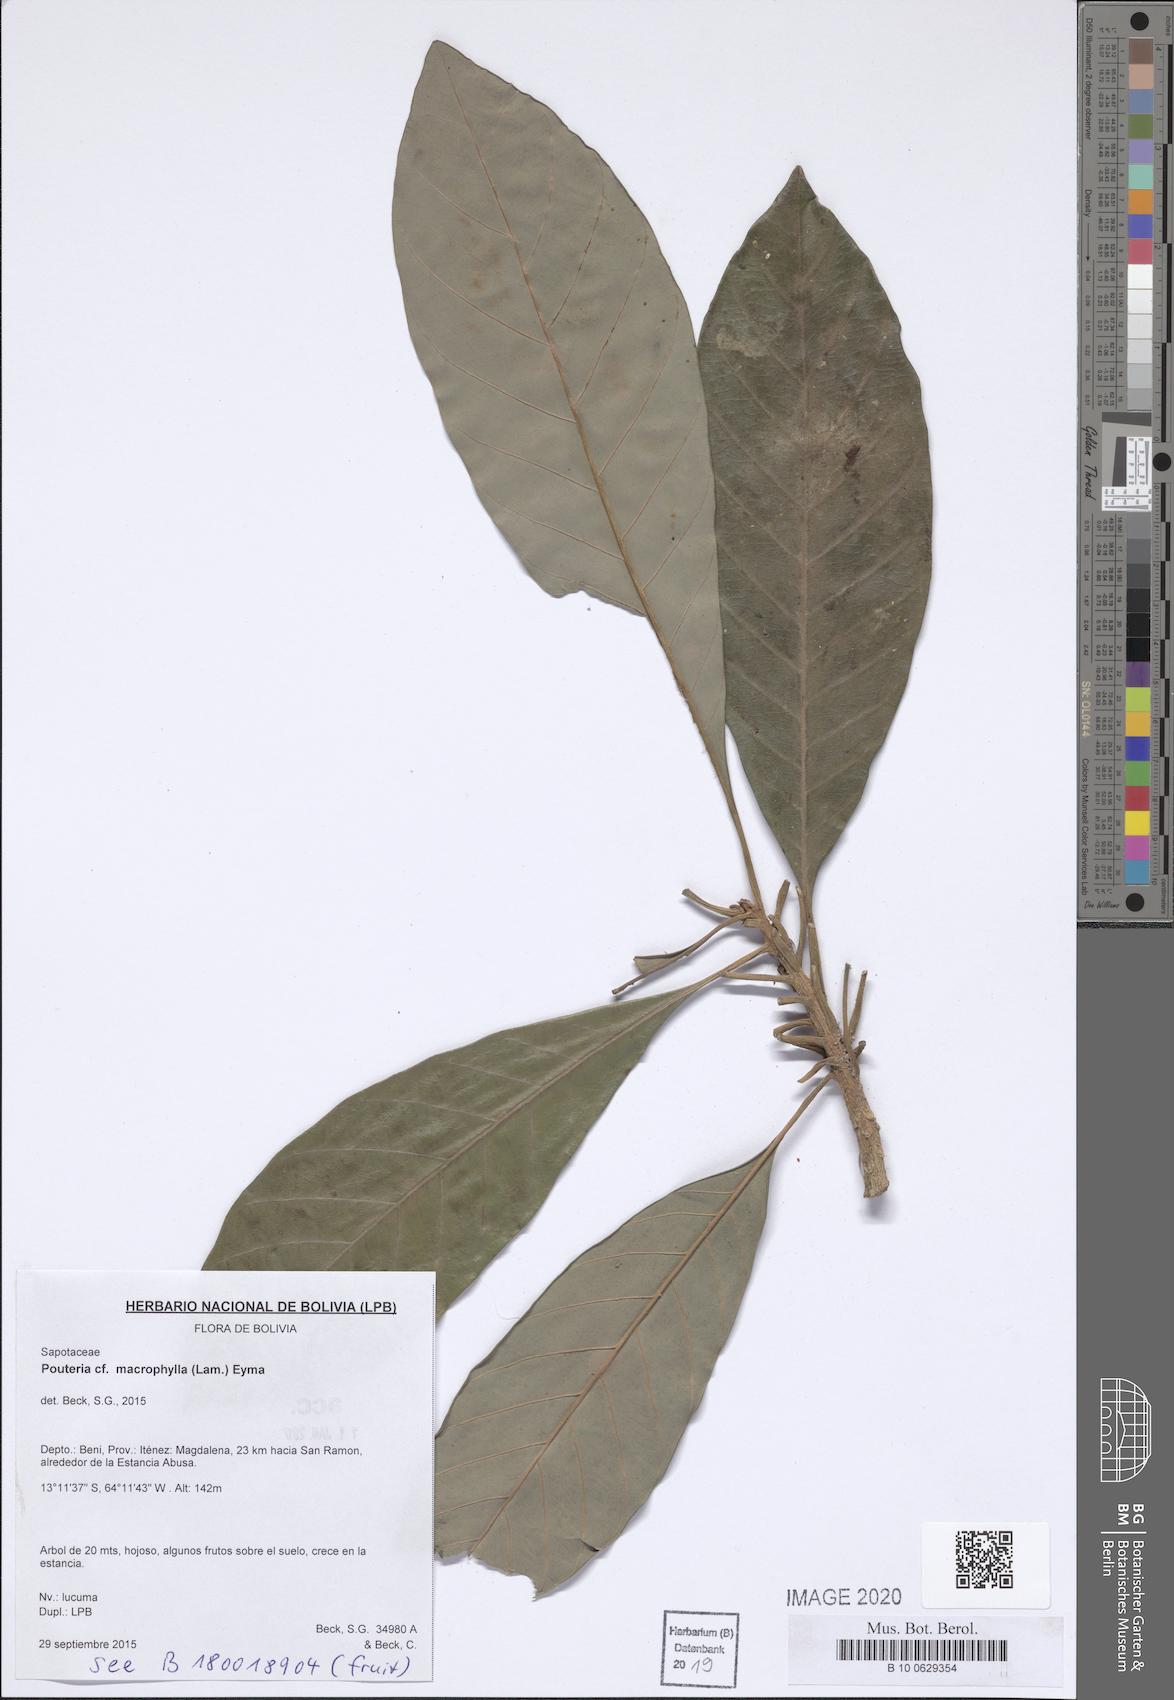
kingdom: Plantae
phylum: Tracheophyta
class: Magnoliopsida
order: Ericales
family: Sapotaceae
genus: Pouteria
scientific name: Pouteria macrophylla
